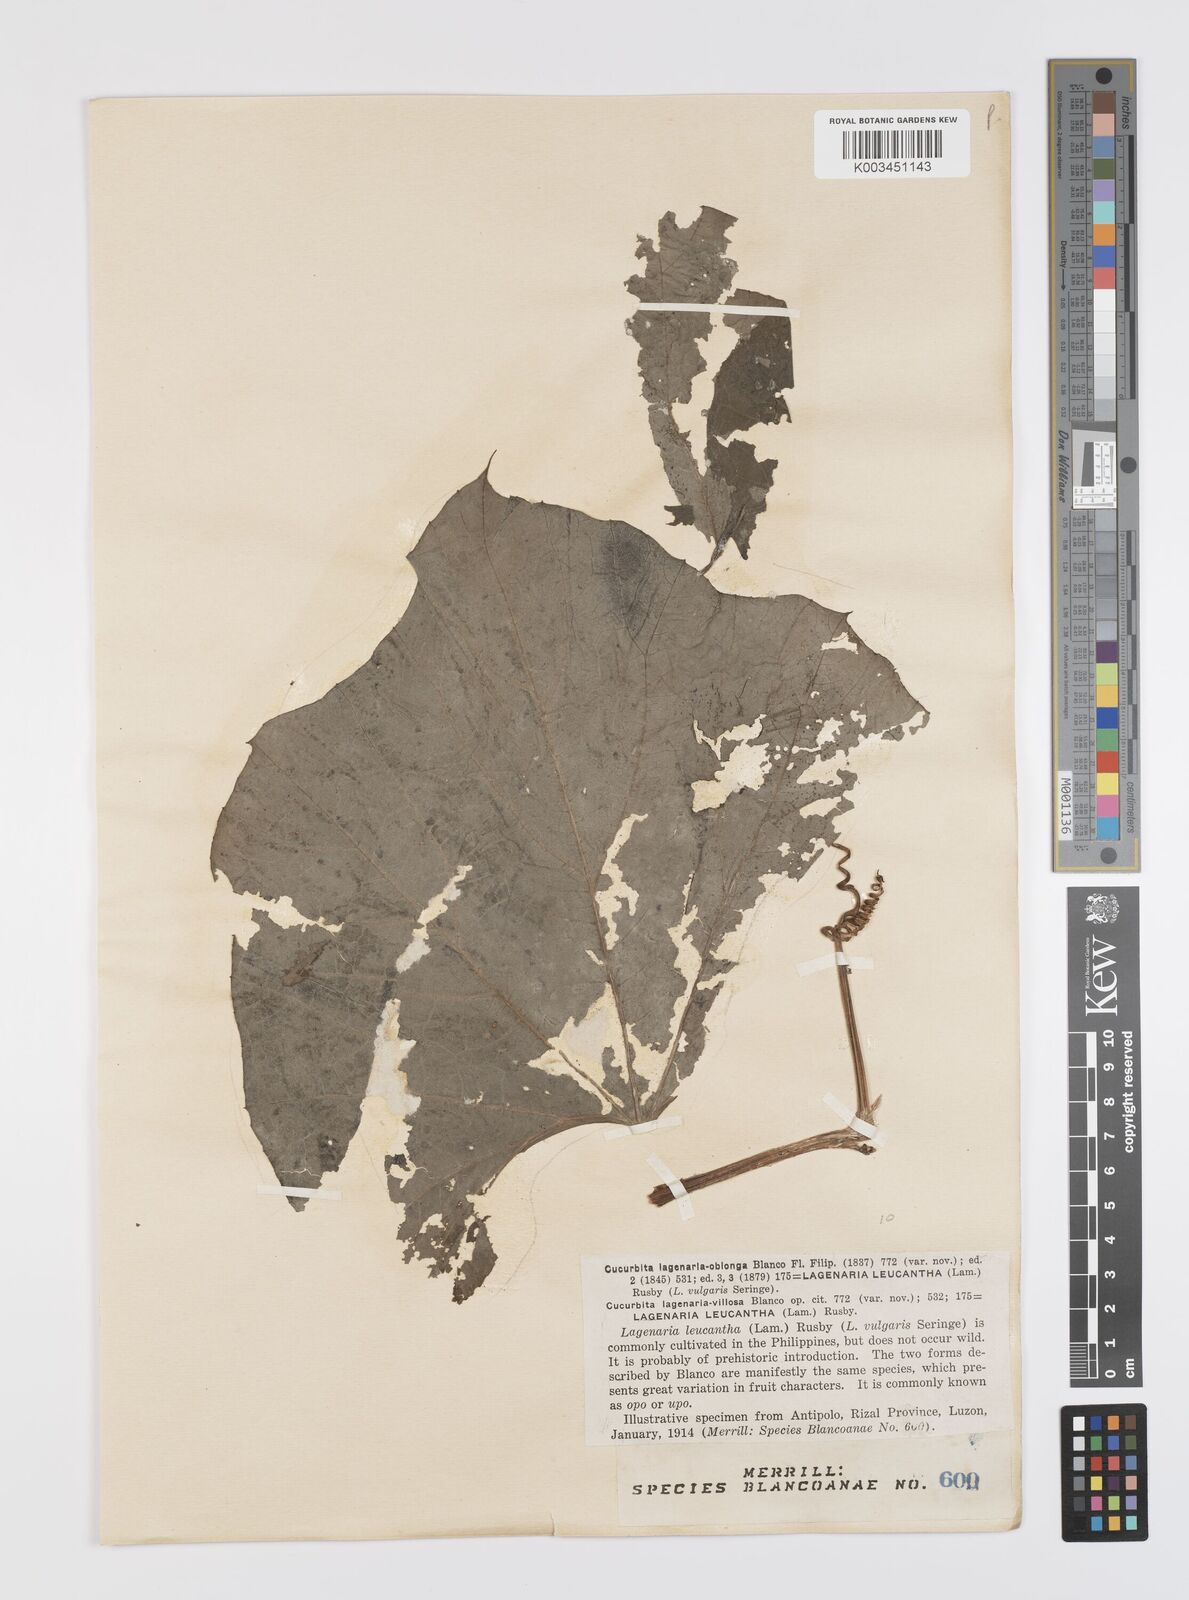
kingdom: Plantae
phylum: Tracheophyta
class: Magnoliopsida
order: Cucurbitales
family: Cucurbitaceae
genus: Lagenaria
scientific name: Lagenaria siceraria
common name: Bottle gourd
